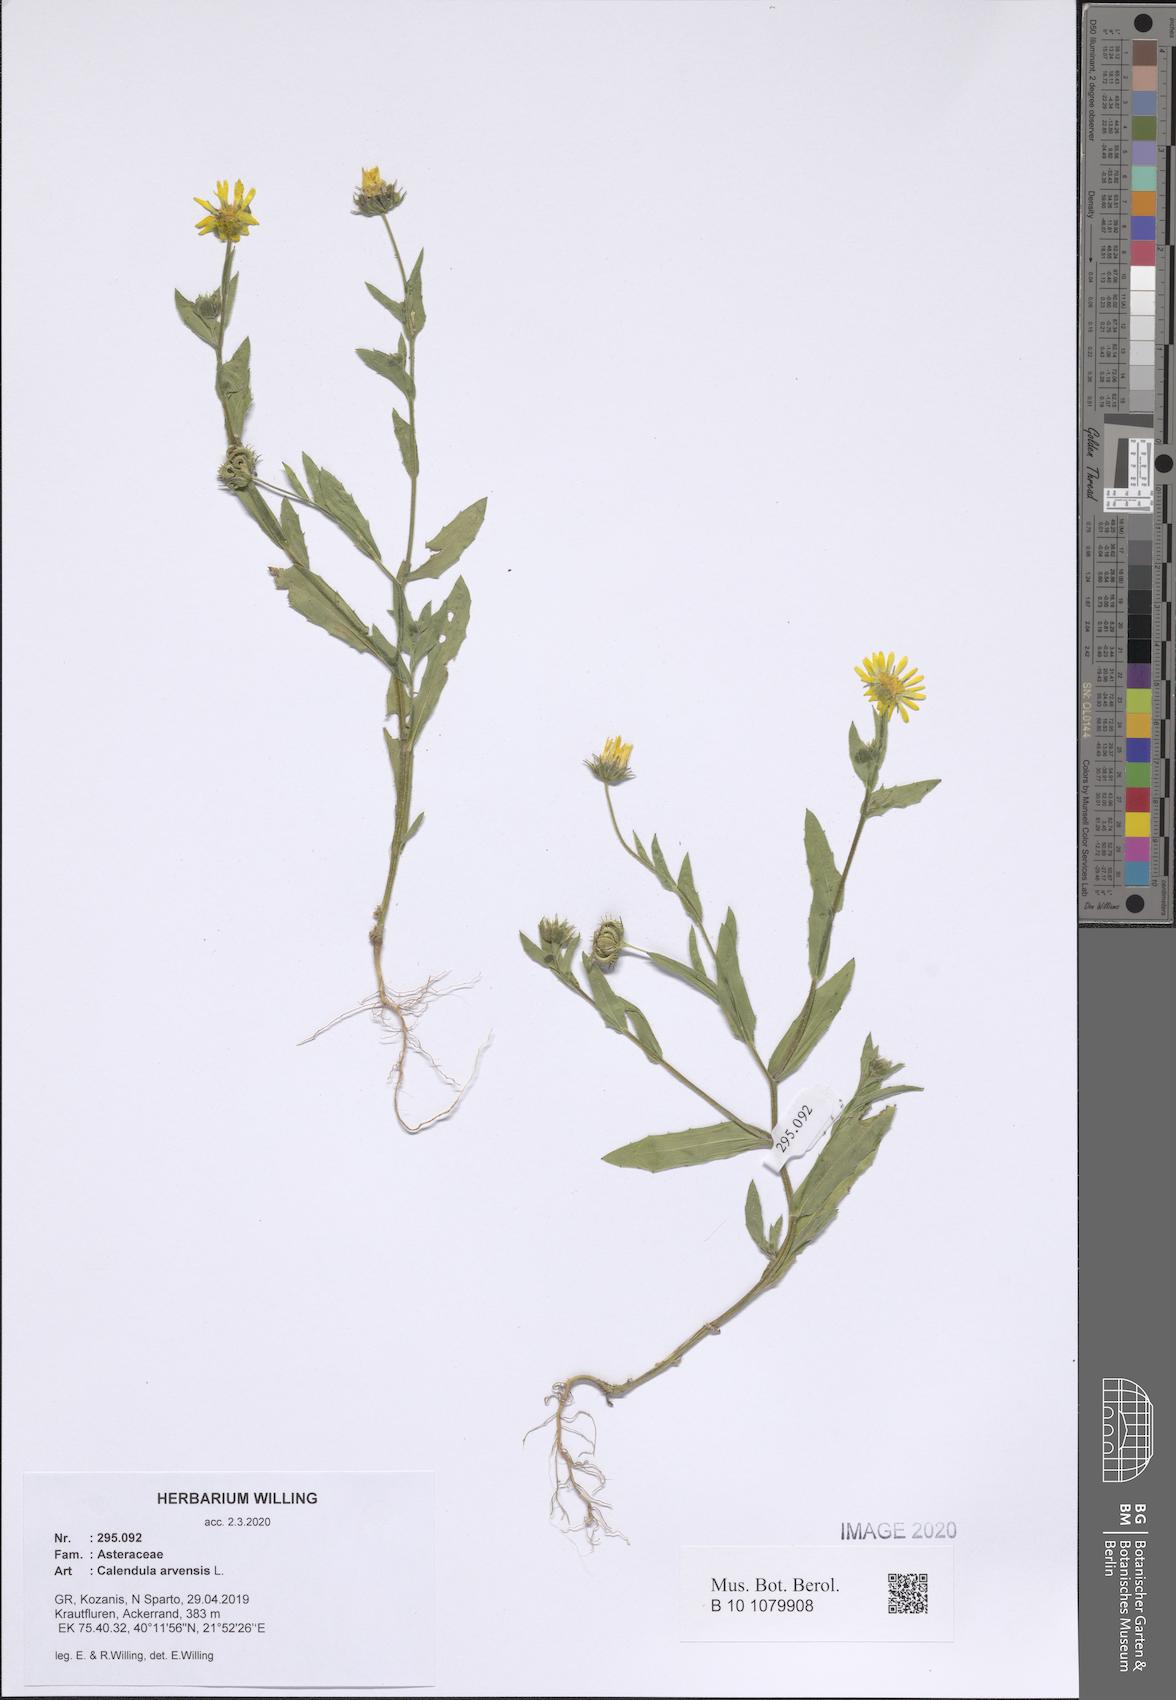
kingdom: Plantae
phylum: Tracheophyta
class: Magnoliopsida
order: Asterales
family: Asteraceae
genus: Calendula
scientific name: Calendula arvensis
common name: Field marigold
